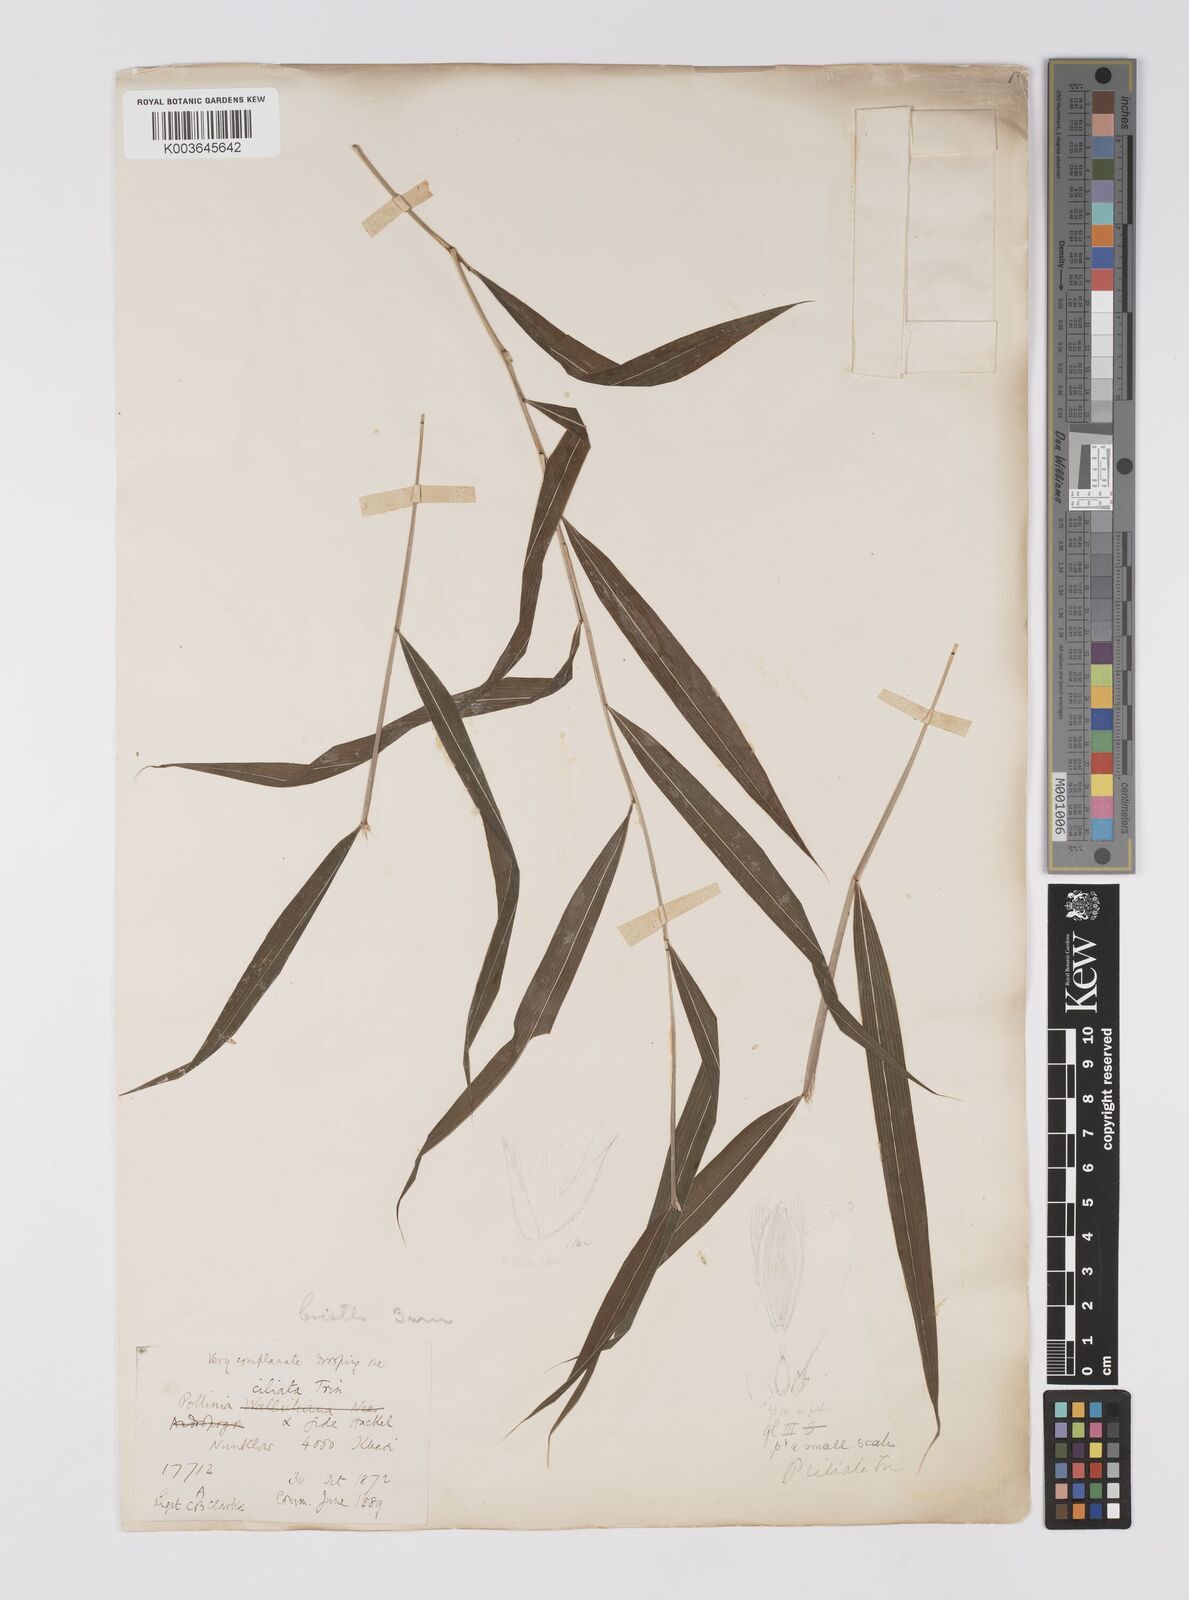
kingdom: Plantae
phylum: Tracheophyta
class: Liliopsida
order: Poales
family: Poaceae
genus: Microstegium
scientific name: Microstegium fasciculatum
